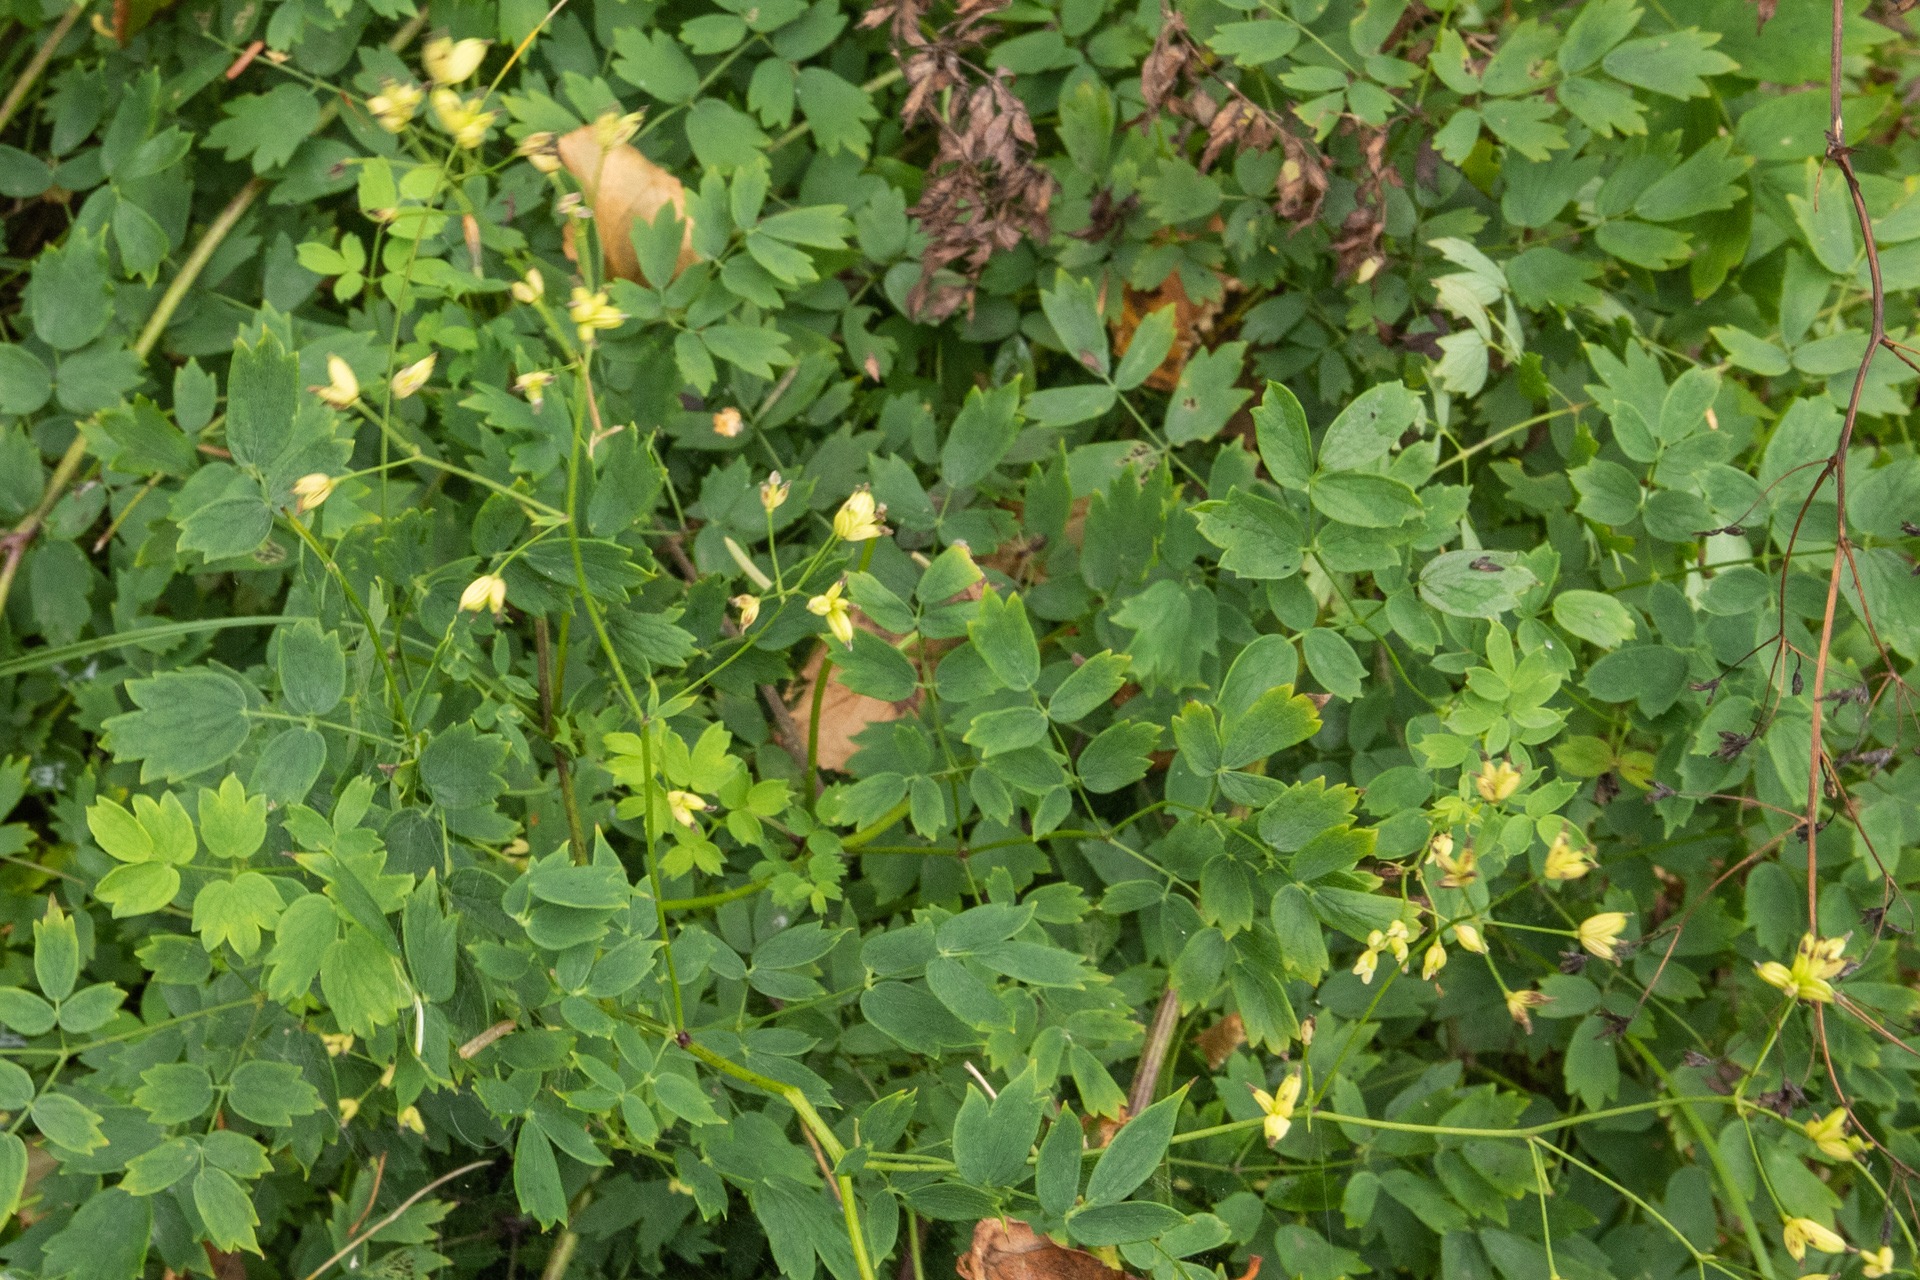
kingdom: Plantae
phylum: Tracheophyta
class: Magnoliopsida
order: Ranunculales
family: Ranunculaceae
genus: Thalictrum
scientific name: Thalictrum minus
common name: Liden frøstjerne
